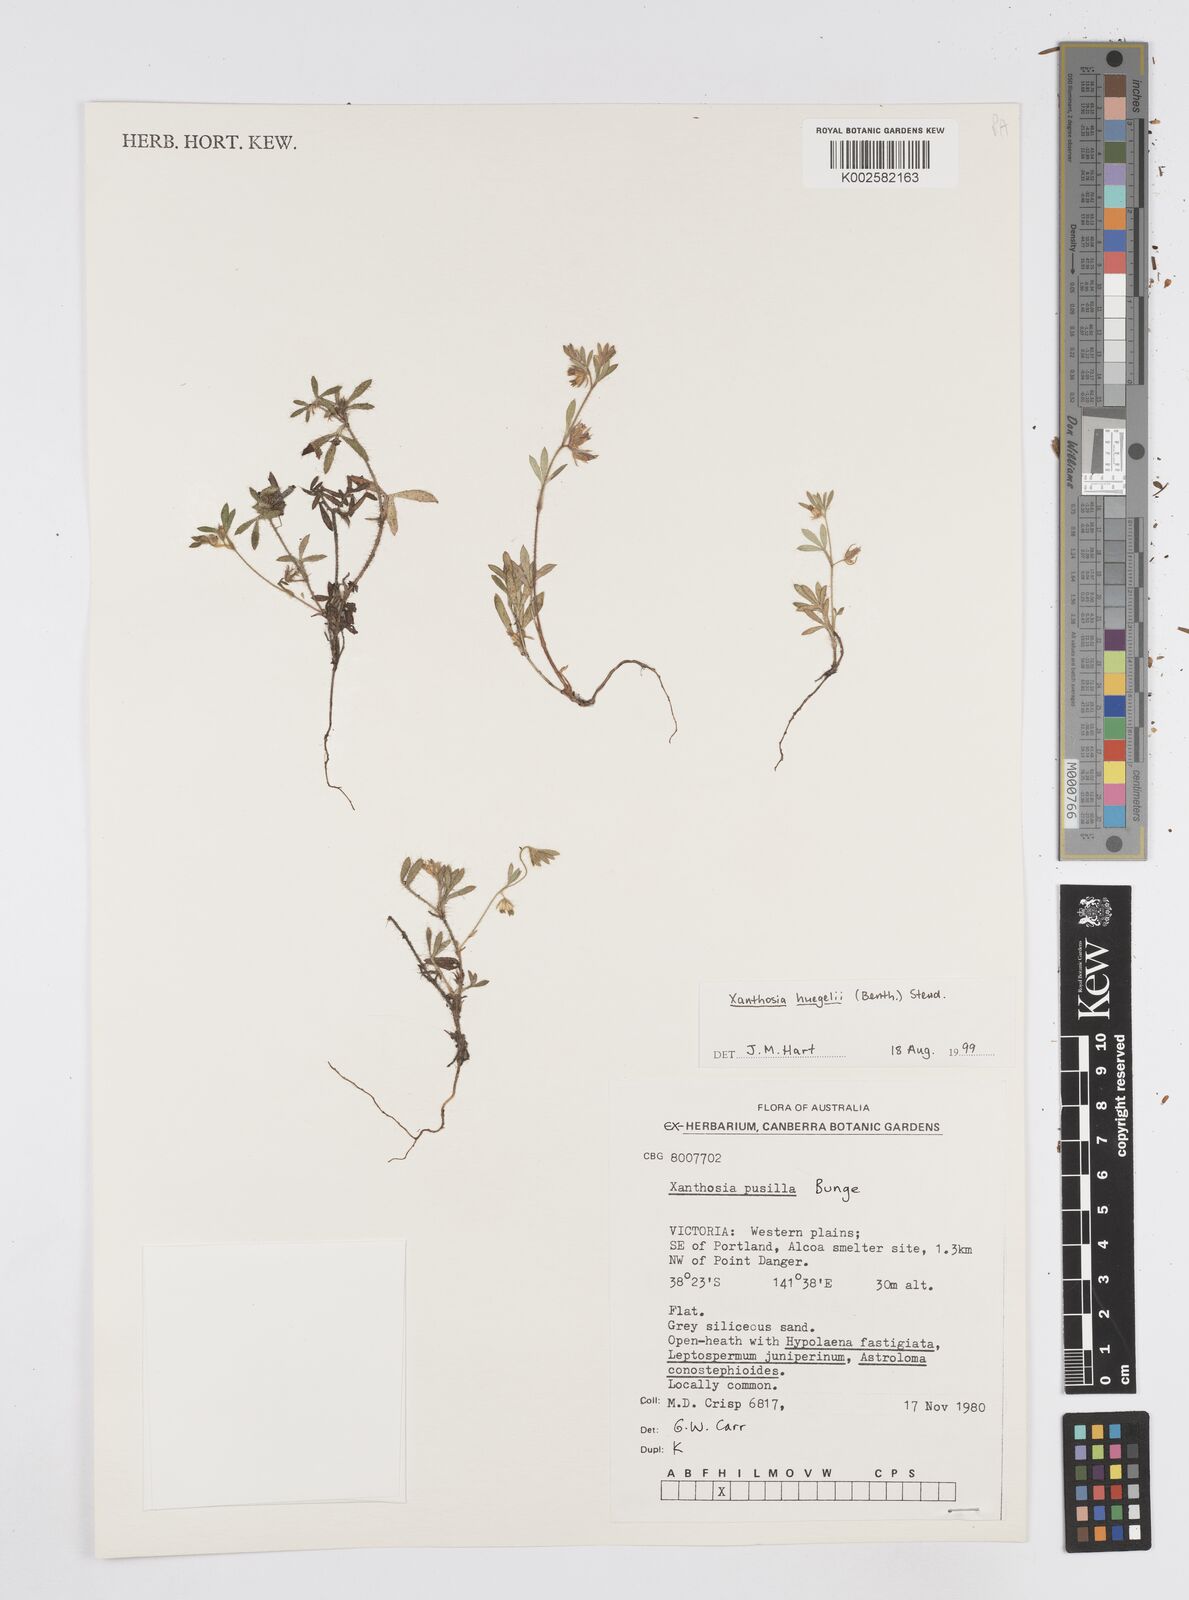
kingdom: Plantae
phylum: Tracheophyta
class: Magnoliopsida
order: Apiales
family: Apiaceae
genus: Xanthosia
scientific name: Xanthosia huegelii
